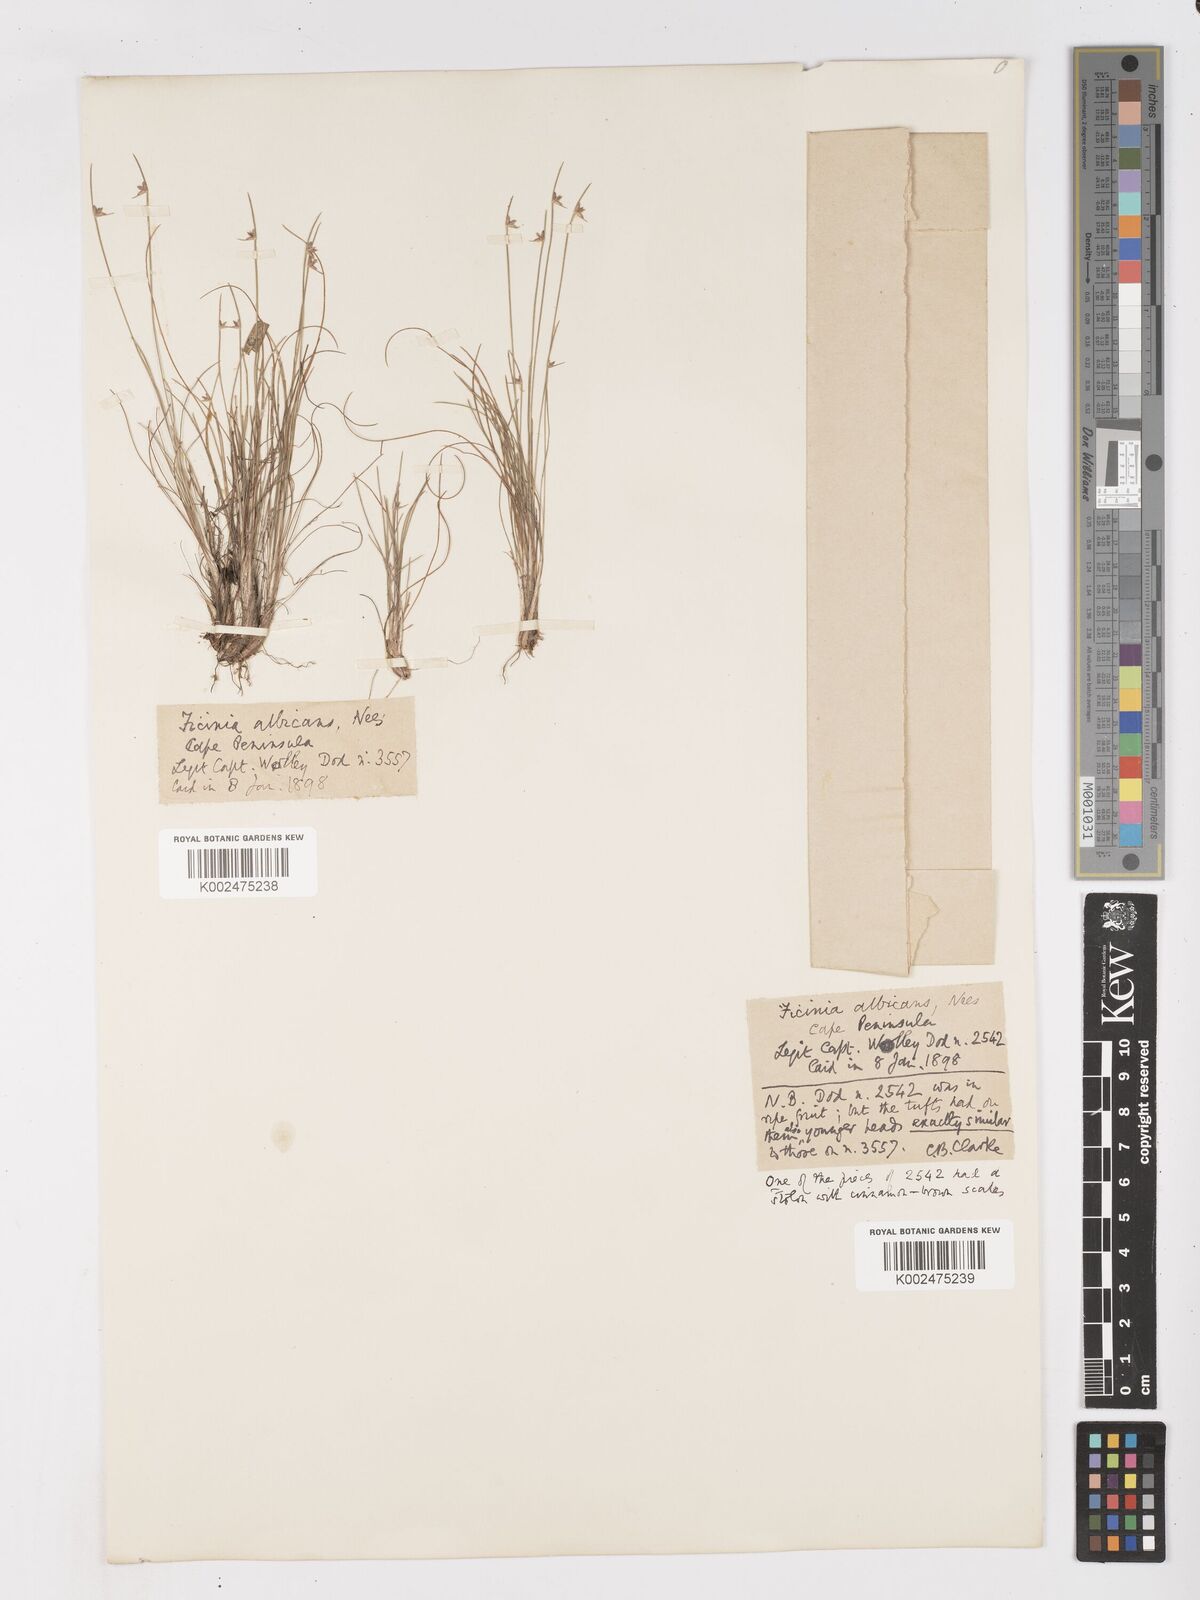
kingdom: Plantae
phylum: Tracheophyta
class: Liliopsida
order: Poales
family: Cyperaceae
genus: Ficinia
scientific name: Ficinia albicans
